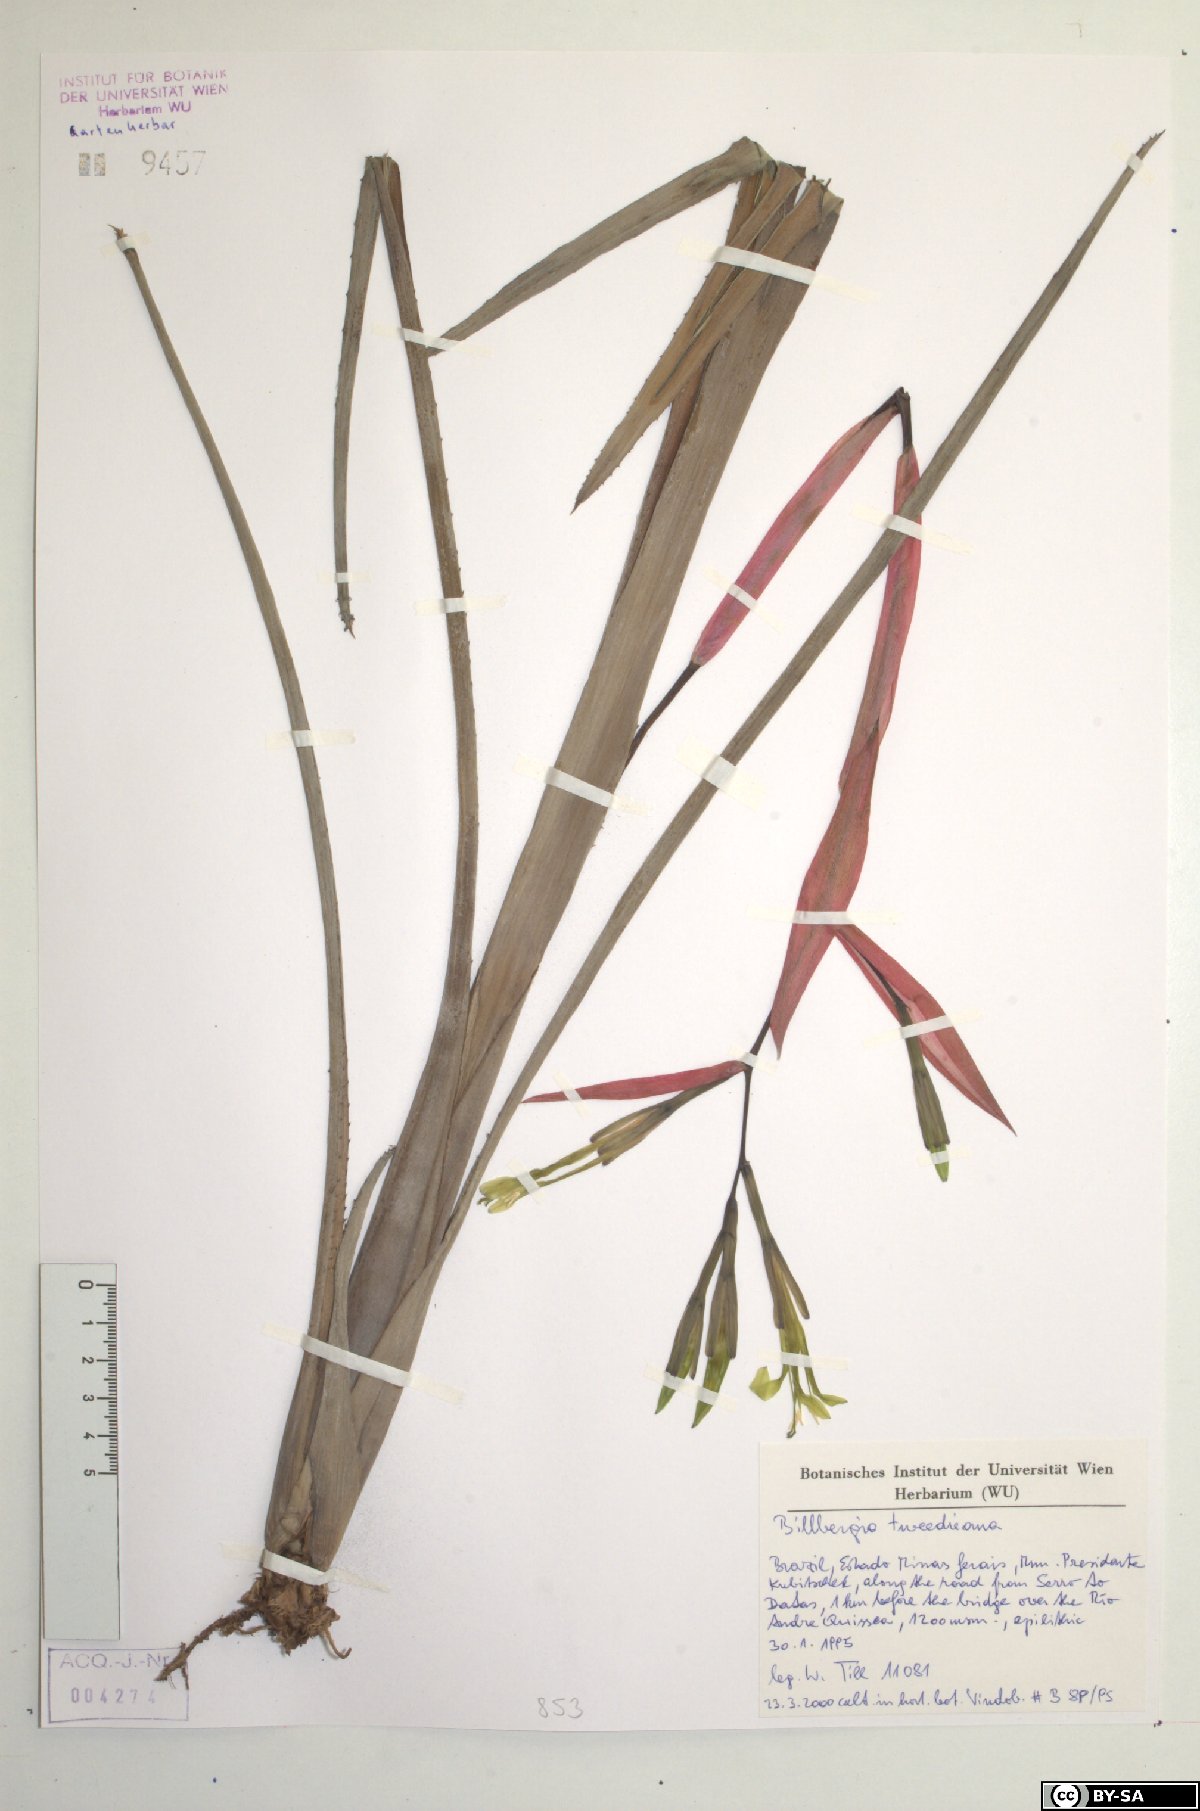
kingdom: Plantae
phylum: Tracheophyta
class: Liliopsida
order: Poales
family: Bromeliaceae
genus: Billbergia
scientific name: Billbergia tweedieana
